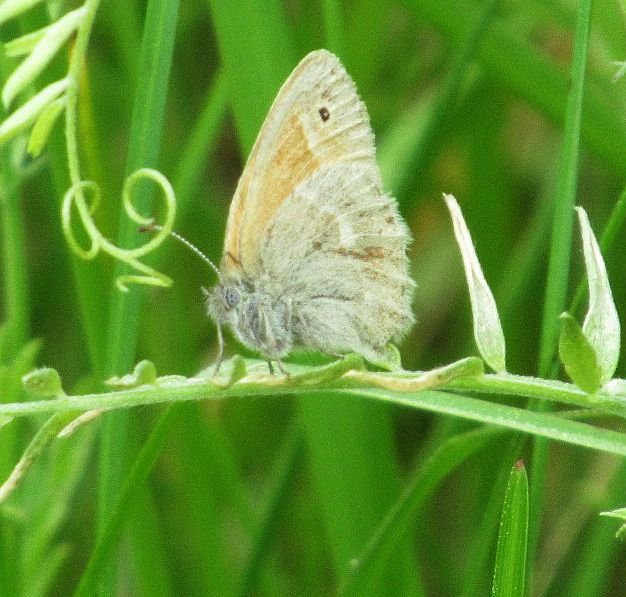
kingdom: Animalia
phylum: Arthropoda
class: Insecta
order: Lepidoptera
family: Nymphalidae
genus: Coenonympha
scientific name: Coenonympha tullia
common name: Large Heath
